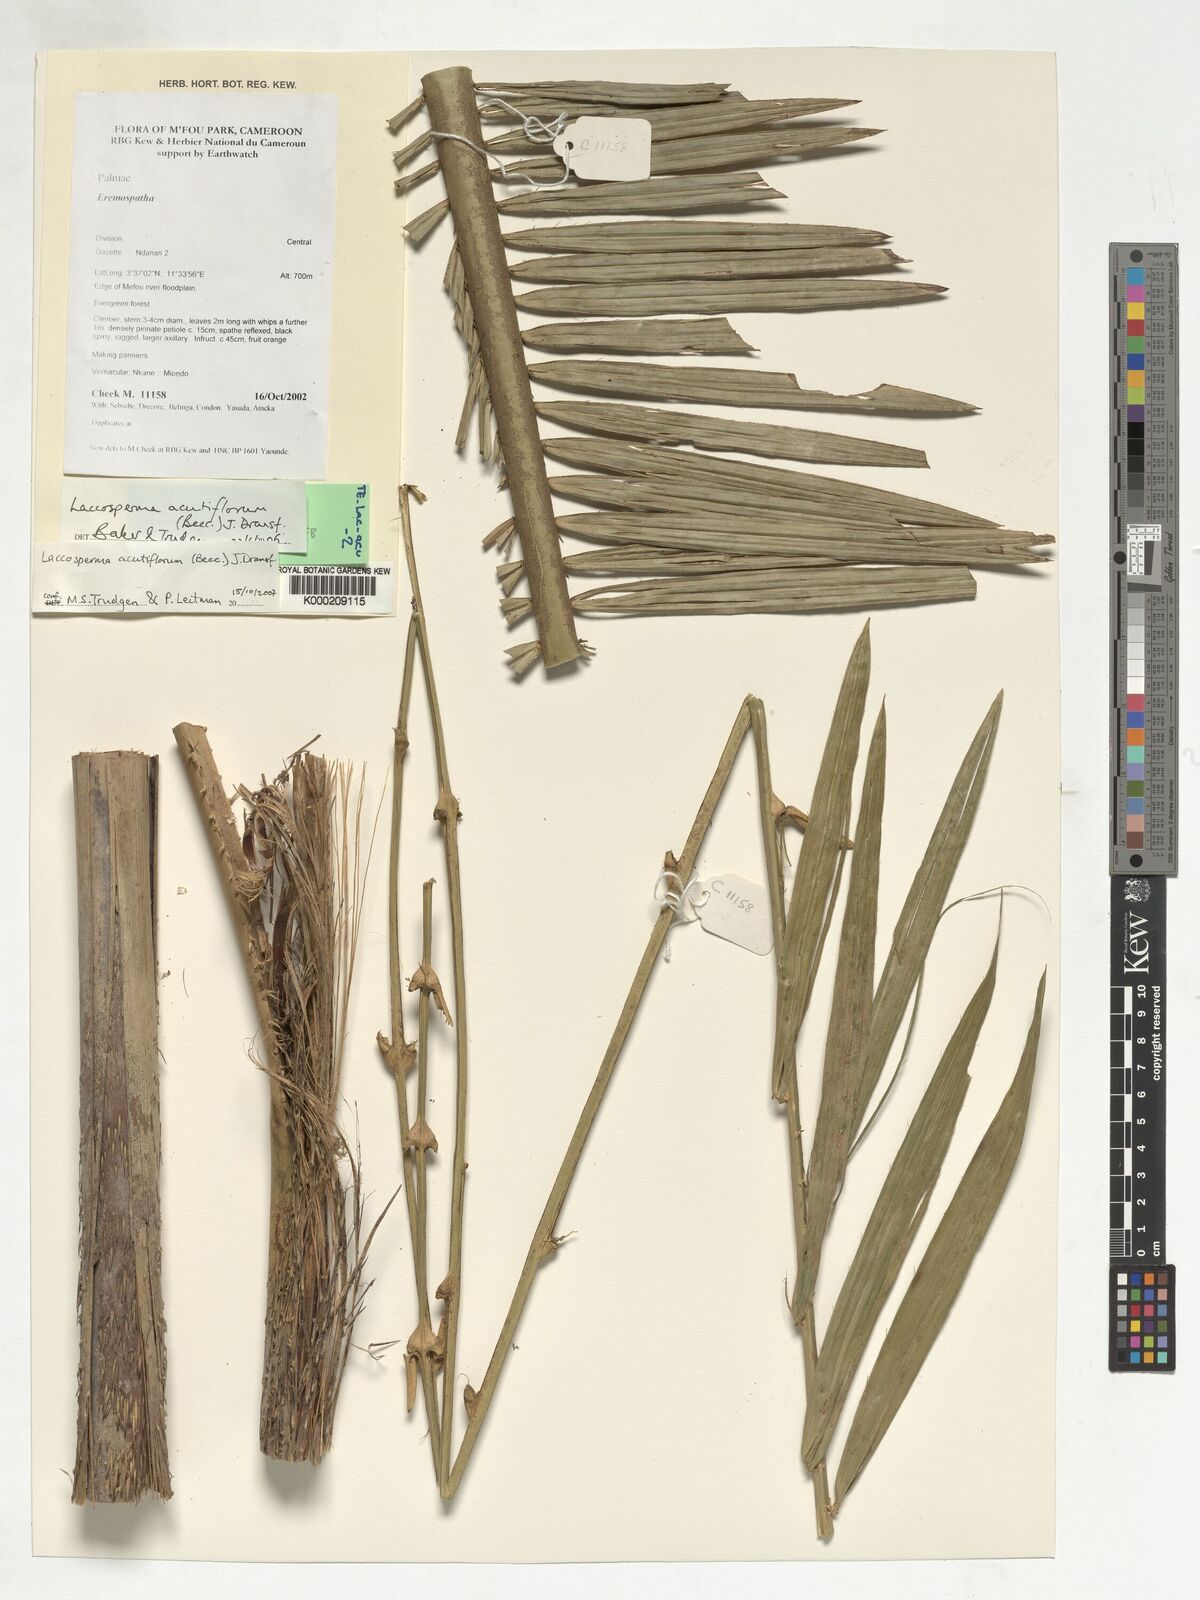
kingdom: Plantae
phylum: Tracheophyta
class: Liliopsida
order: Arecales
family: Arecaceae
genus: Laccosperma
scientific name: Laccosperma acutiflorum
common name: Rattan
